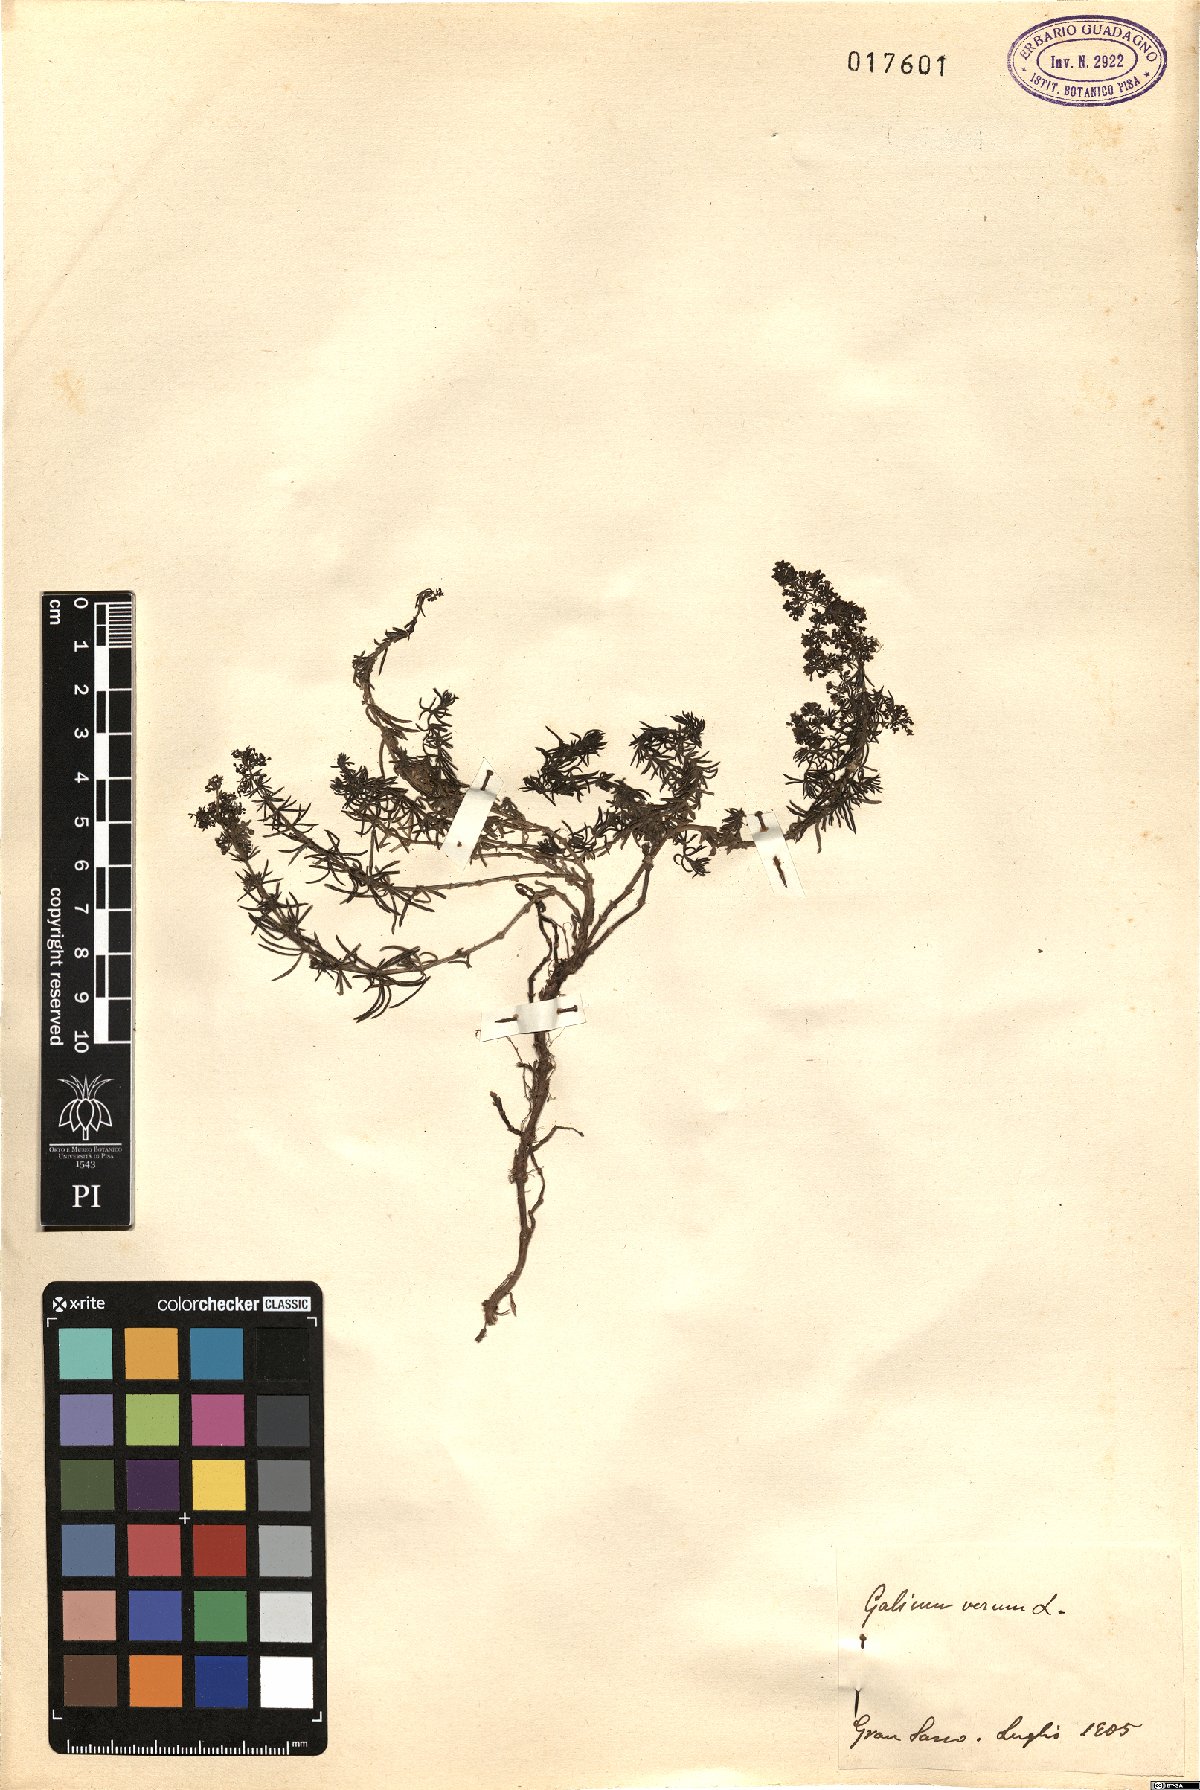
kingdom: Plantae
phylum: Tracheophyta
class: Magnoliopsida
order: Gentianales
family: Rubiaceae
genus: Galium
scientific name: Galium verum
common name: Lady's bedstraw
